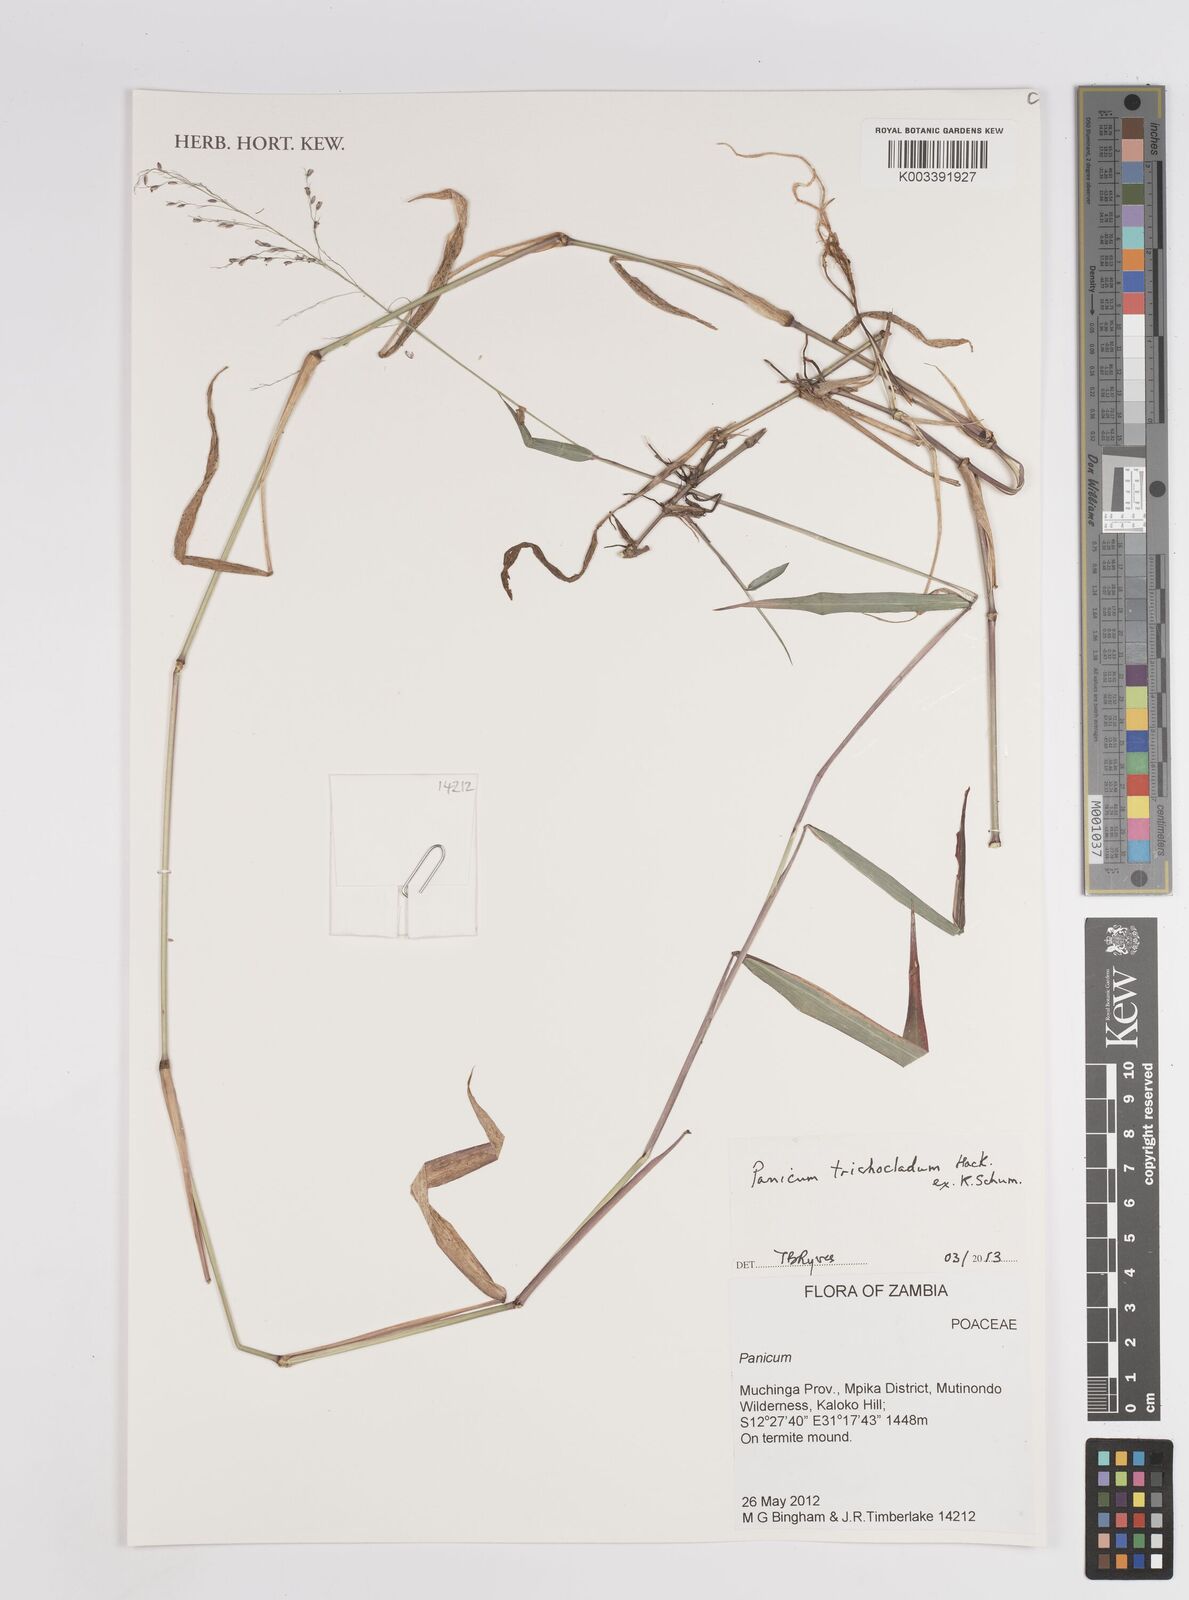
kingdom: Plantae
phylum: Tracheophyta
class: Liliopsida
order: Poales
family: Poaceae
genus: Panicum
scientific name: Panicum trichocladum
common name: Donkey grass
